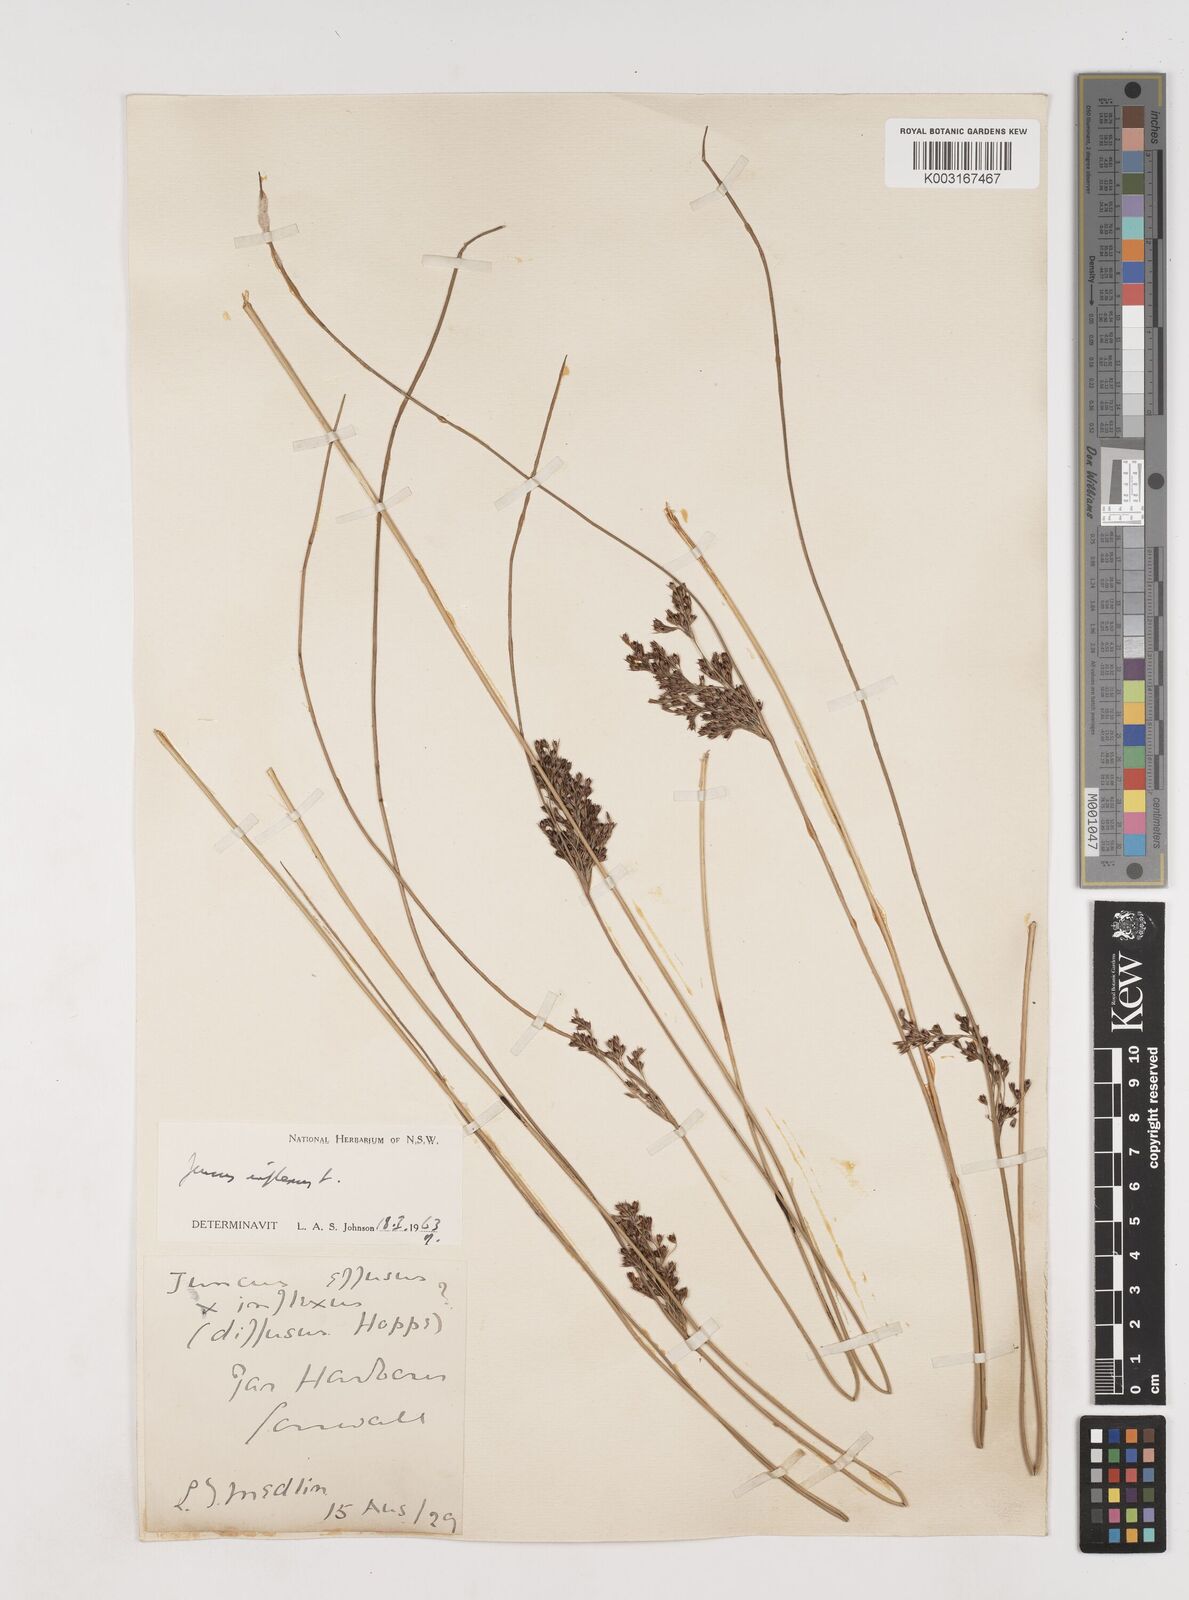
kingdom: Plantae
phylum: Tracheophyta
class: Liliopsida
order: Poales
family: Juncaceae
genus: Juncus
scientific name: Juncus inflexus
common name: Hard rush
